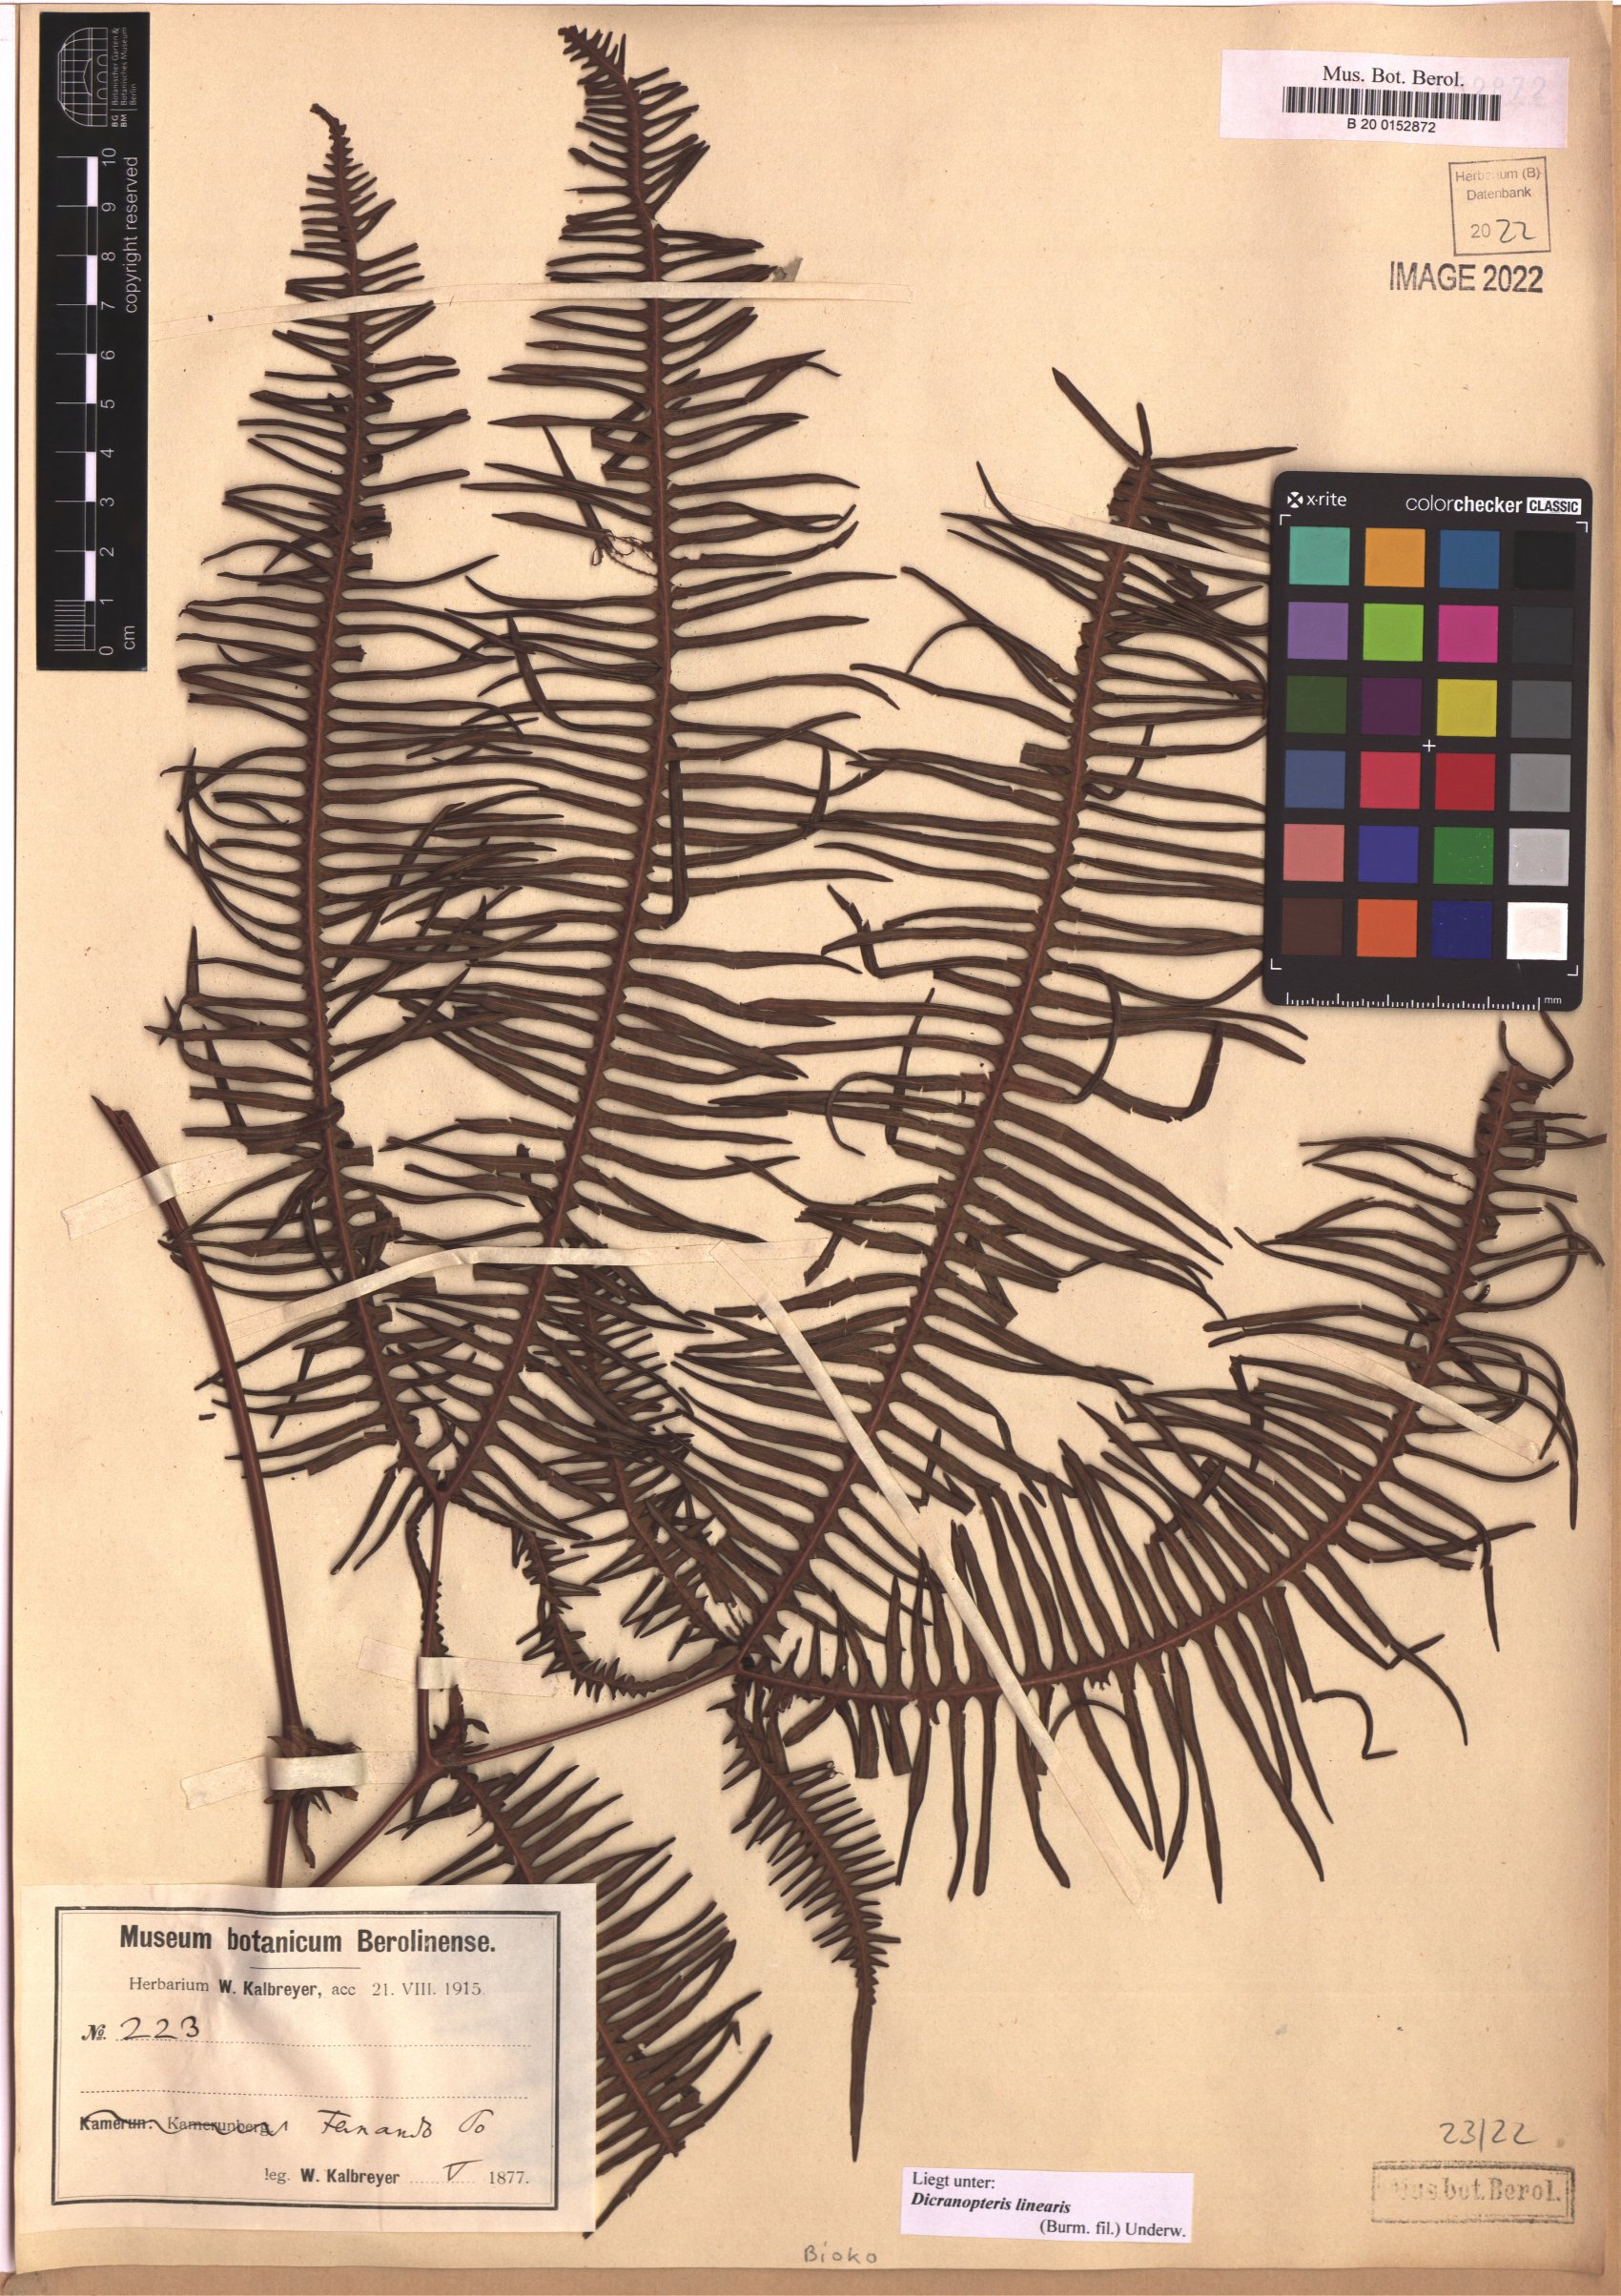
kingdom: Plantae
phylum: Tracheophyta
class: Polypodiopsida
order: Gleicheniales
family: Gleicheniaceae
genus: Dicranopteris
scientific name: Dicranopteris linearis
